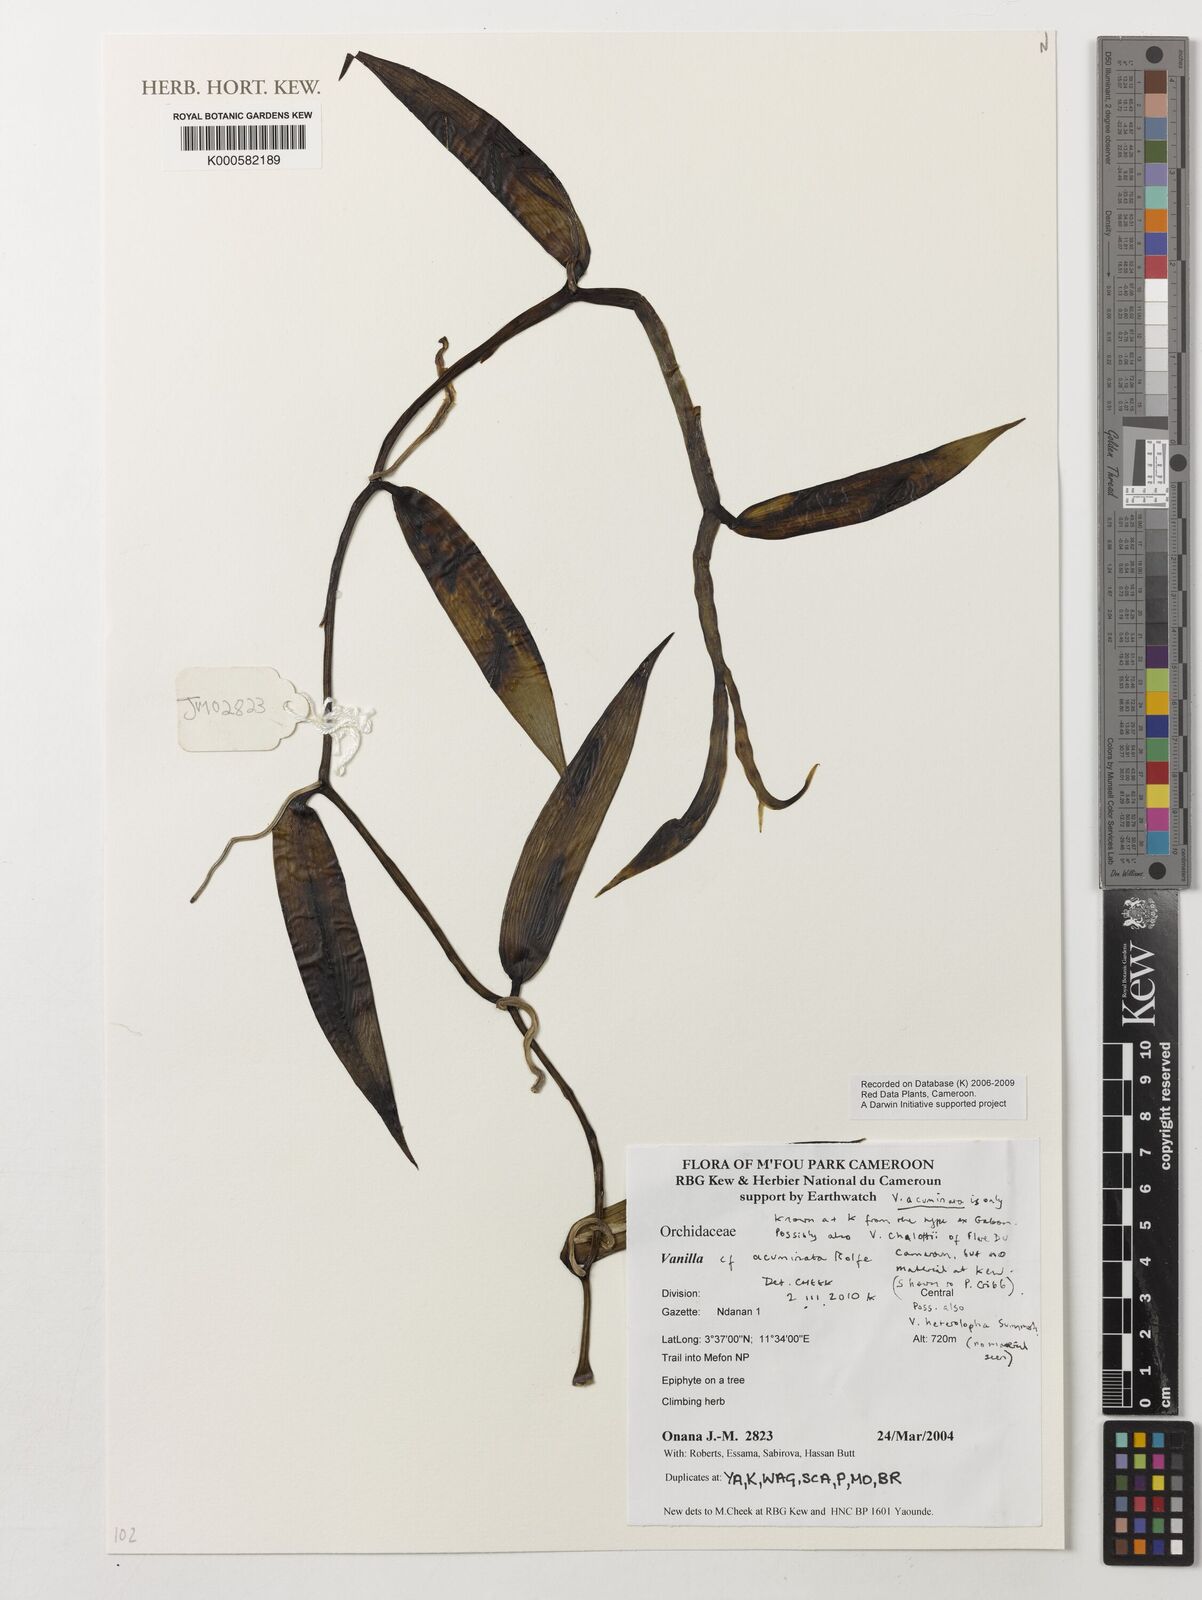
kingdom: Plantae
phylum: Tracheophyta
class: Liliopsida
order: Asparagales
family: Orchidaceae
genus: Vanilla
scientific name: Vanilla acuminata
